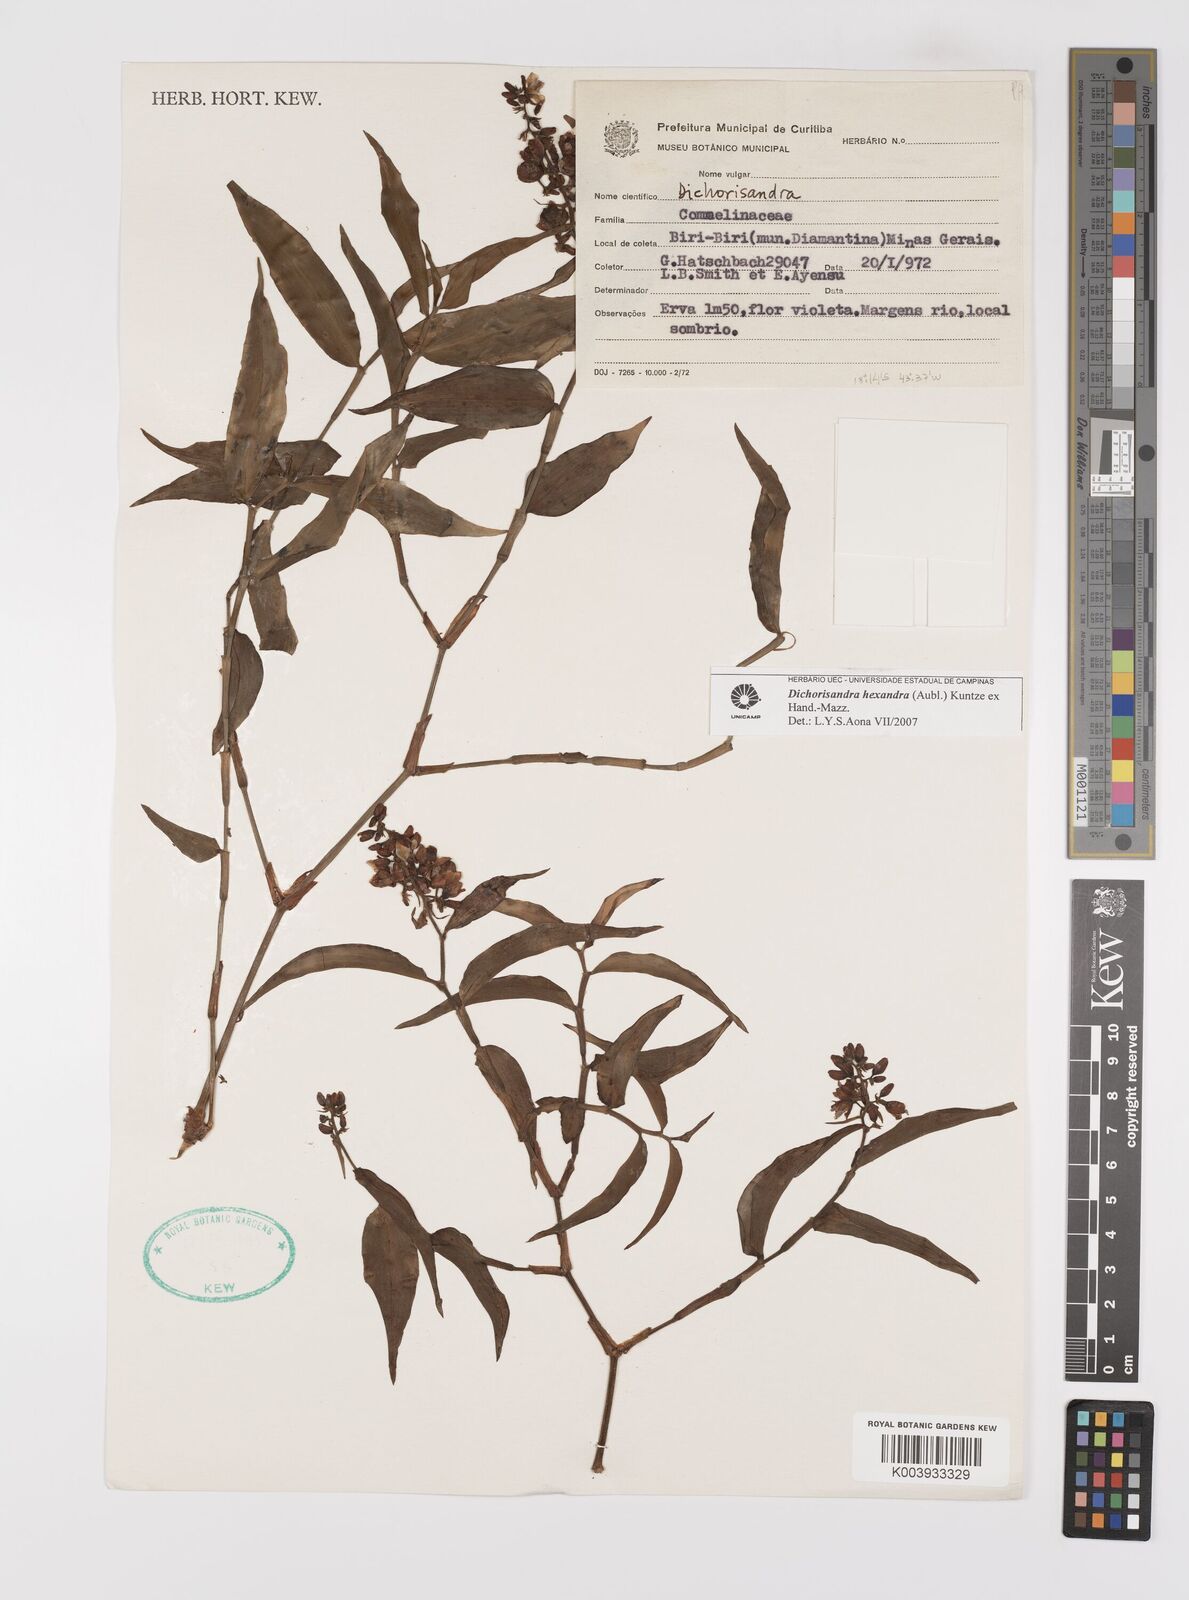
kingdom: Plantae
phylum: Tracheophyta
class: Liliopsida
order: Commelinales
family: Commelinaceae
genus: Dichorisandra
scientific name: Dichorisandra
